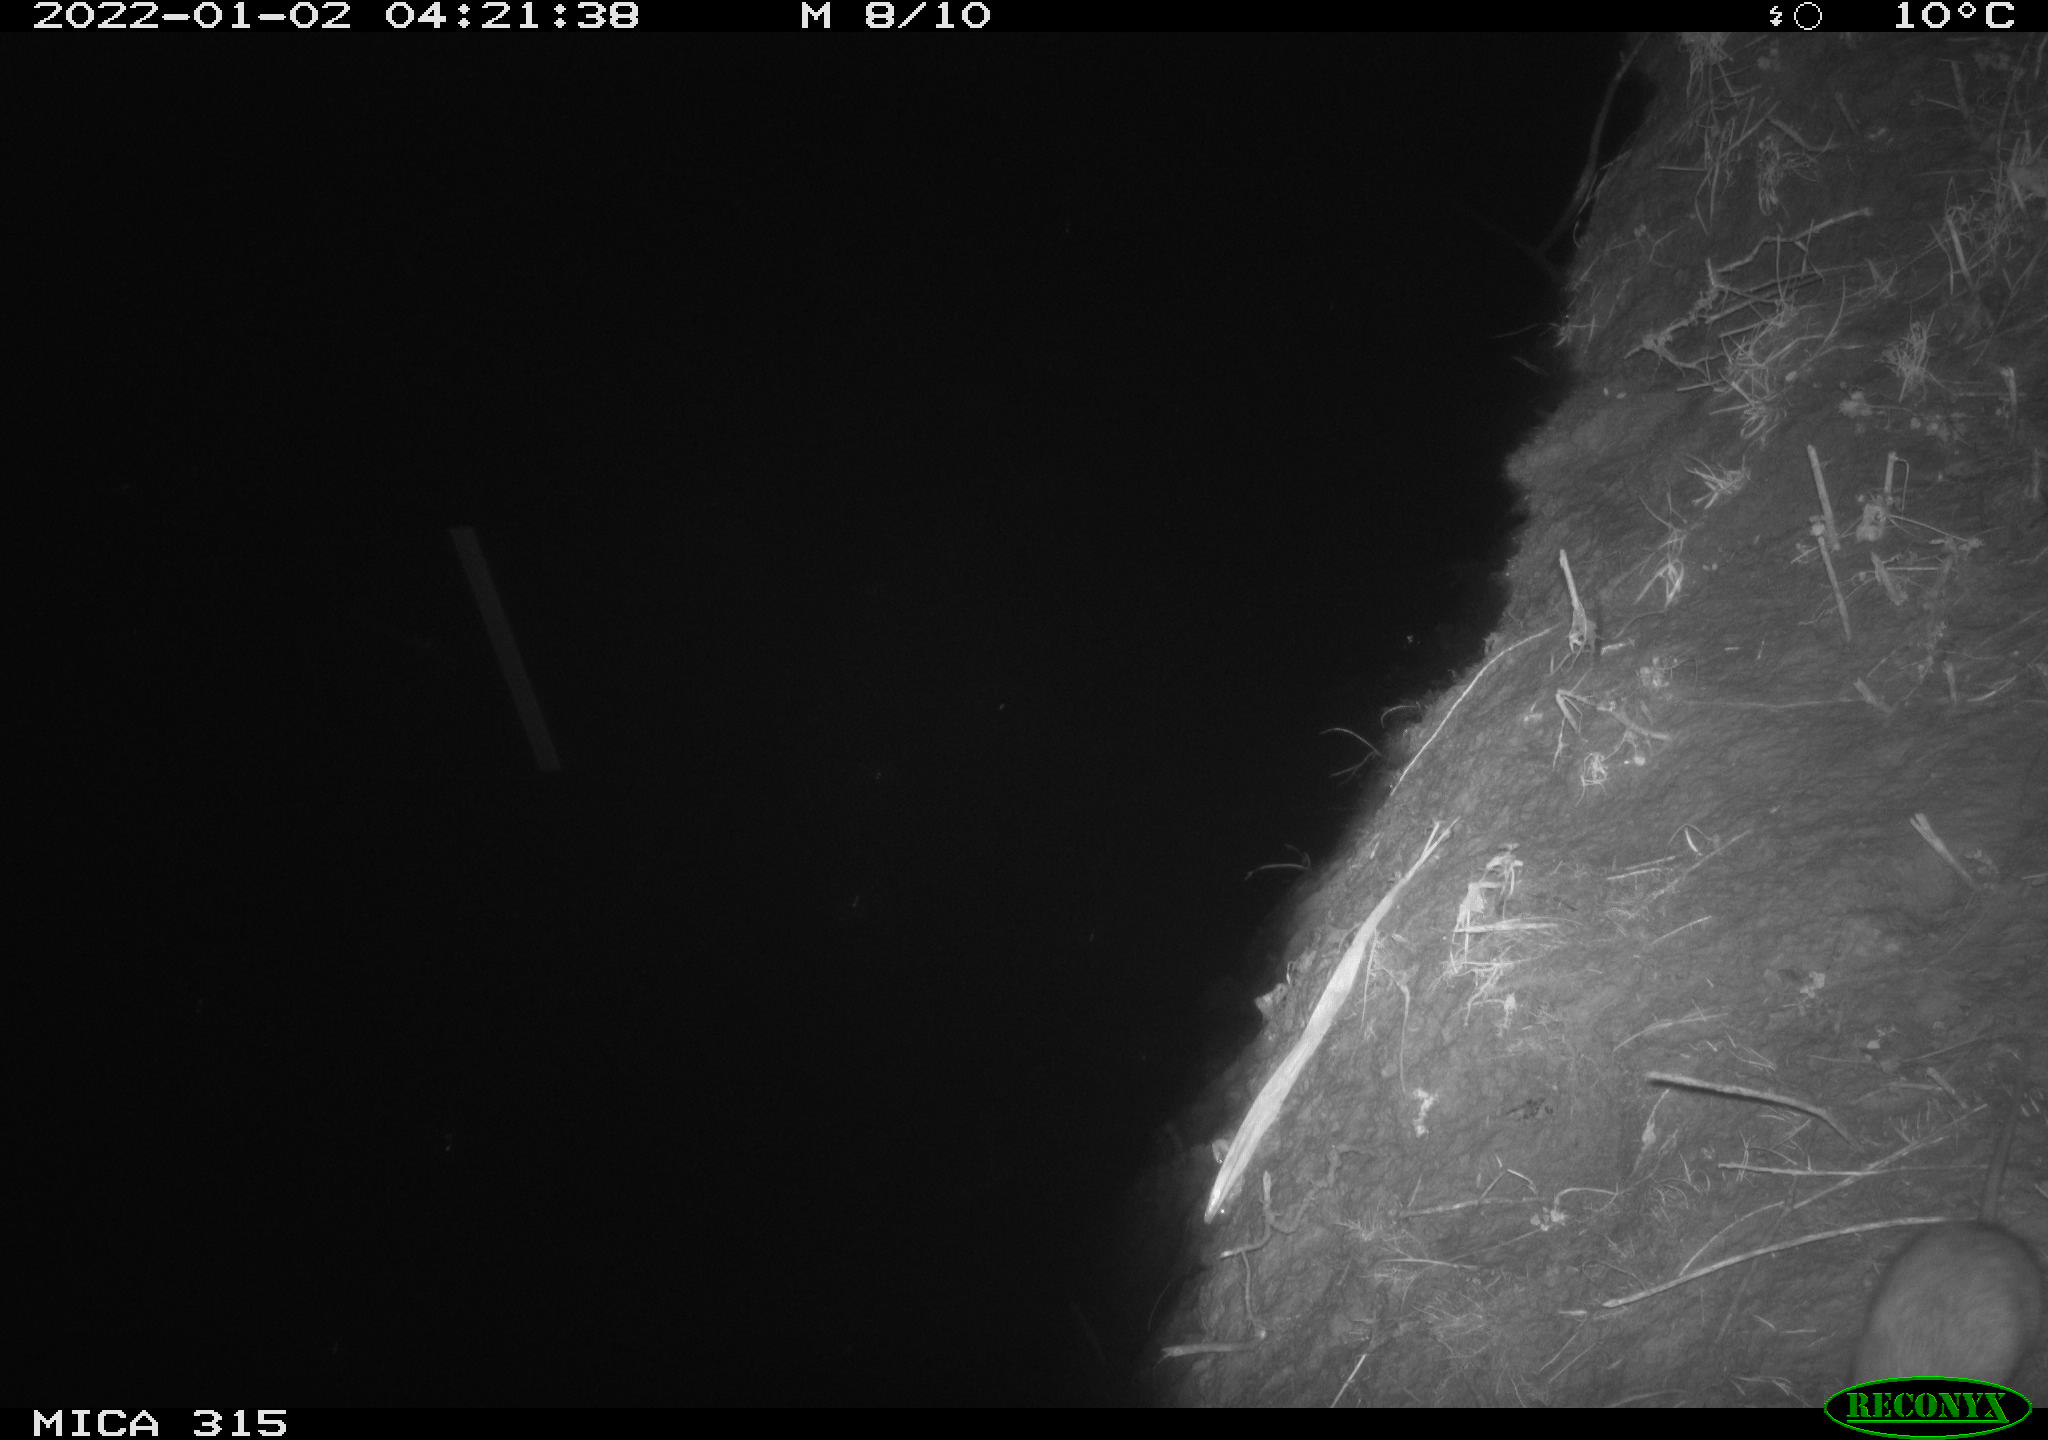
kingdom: Animalia
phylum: Chordata
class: Mammalia
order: Rodentia
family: Muridae
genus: Rattus
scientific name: Rattus norvegicus
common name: Brown rat
